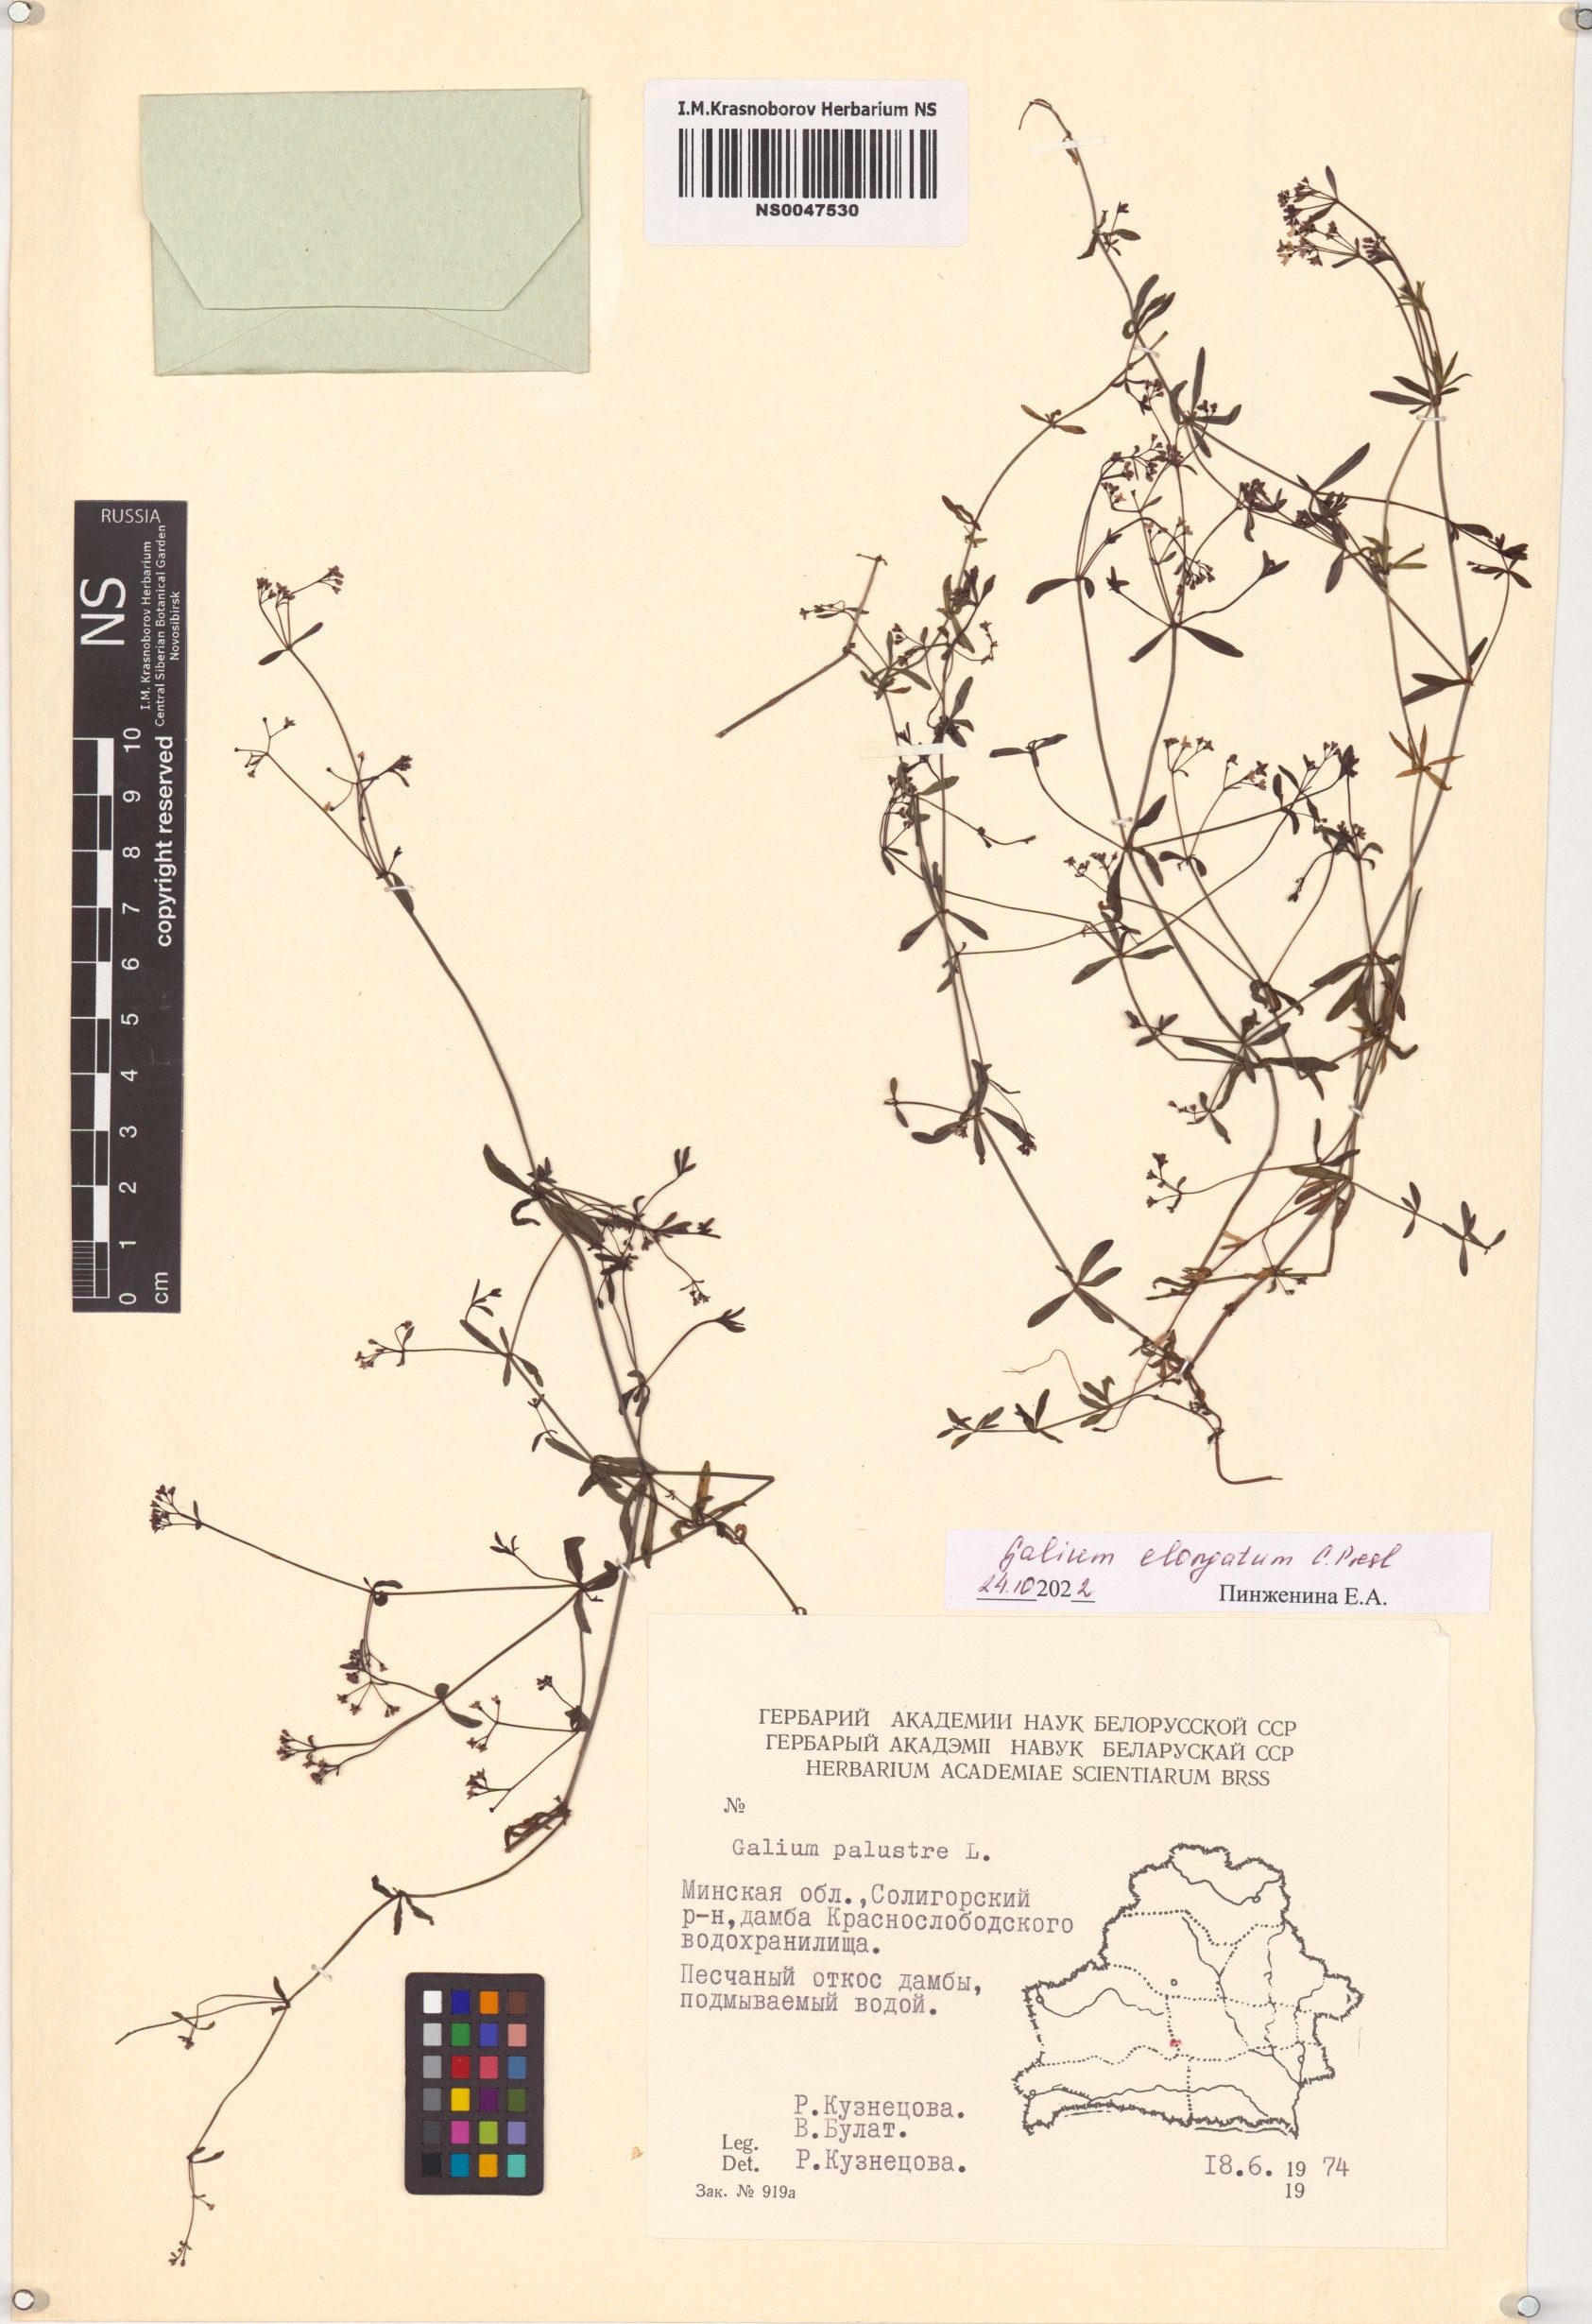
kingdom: Plantae
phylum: Tracheophyta
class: Magnoliopsida
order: Gentianales
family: Rubiaceae
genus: Galium
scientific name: Galium elongatum
